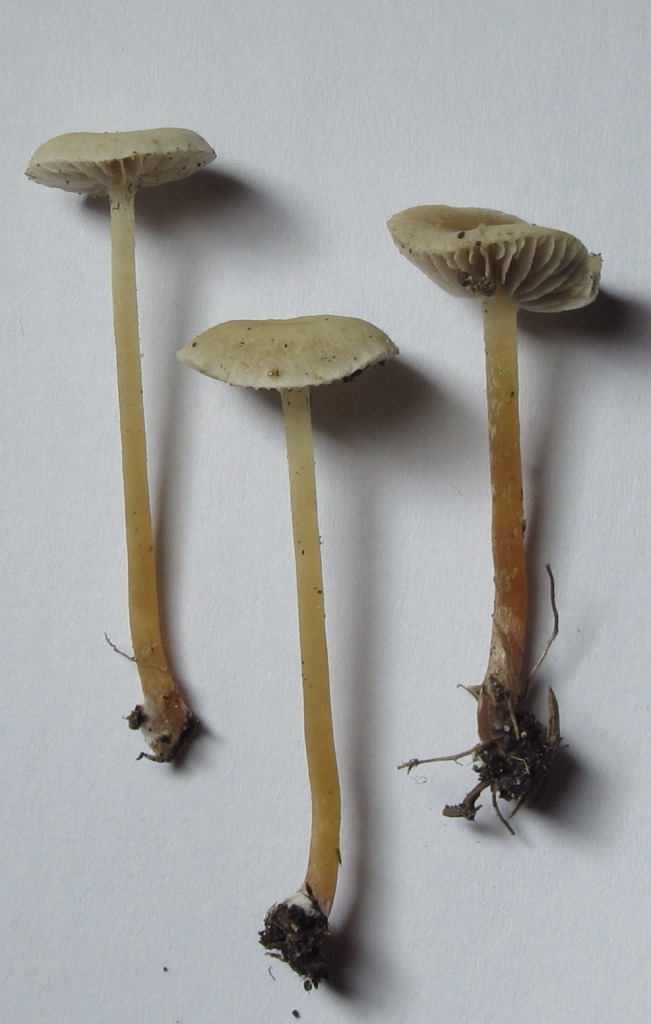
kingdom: Fungi
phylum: Basidiomycota
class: Agaricomycetes
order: Agaricales
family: Strophariaceae
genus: Hypholoma
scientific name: Hypholoma elongatum
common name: slank svovlhat
